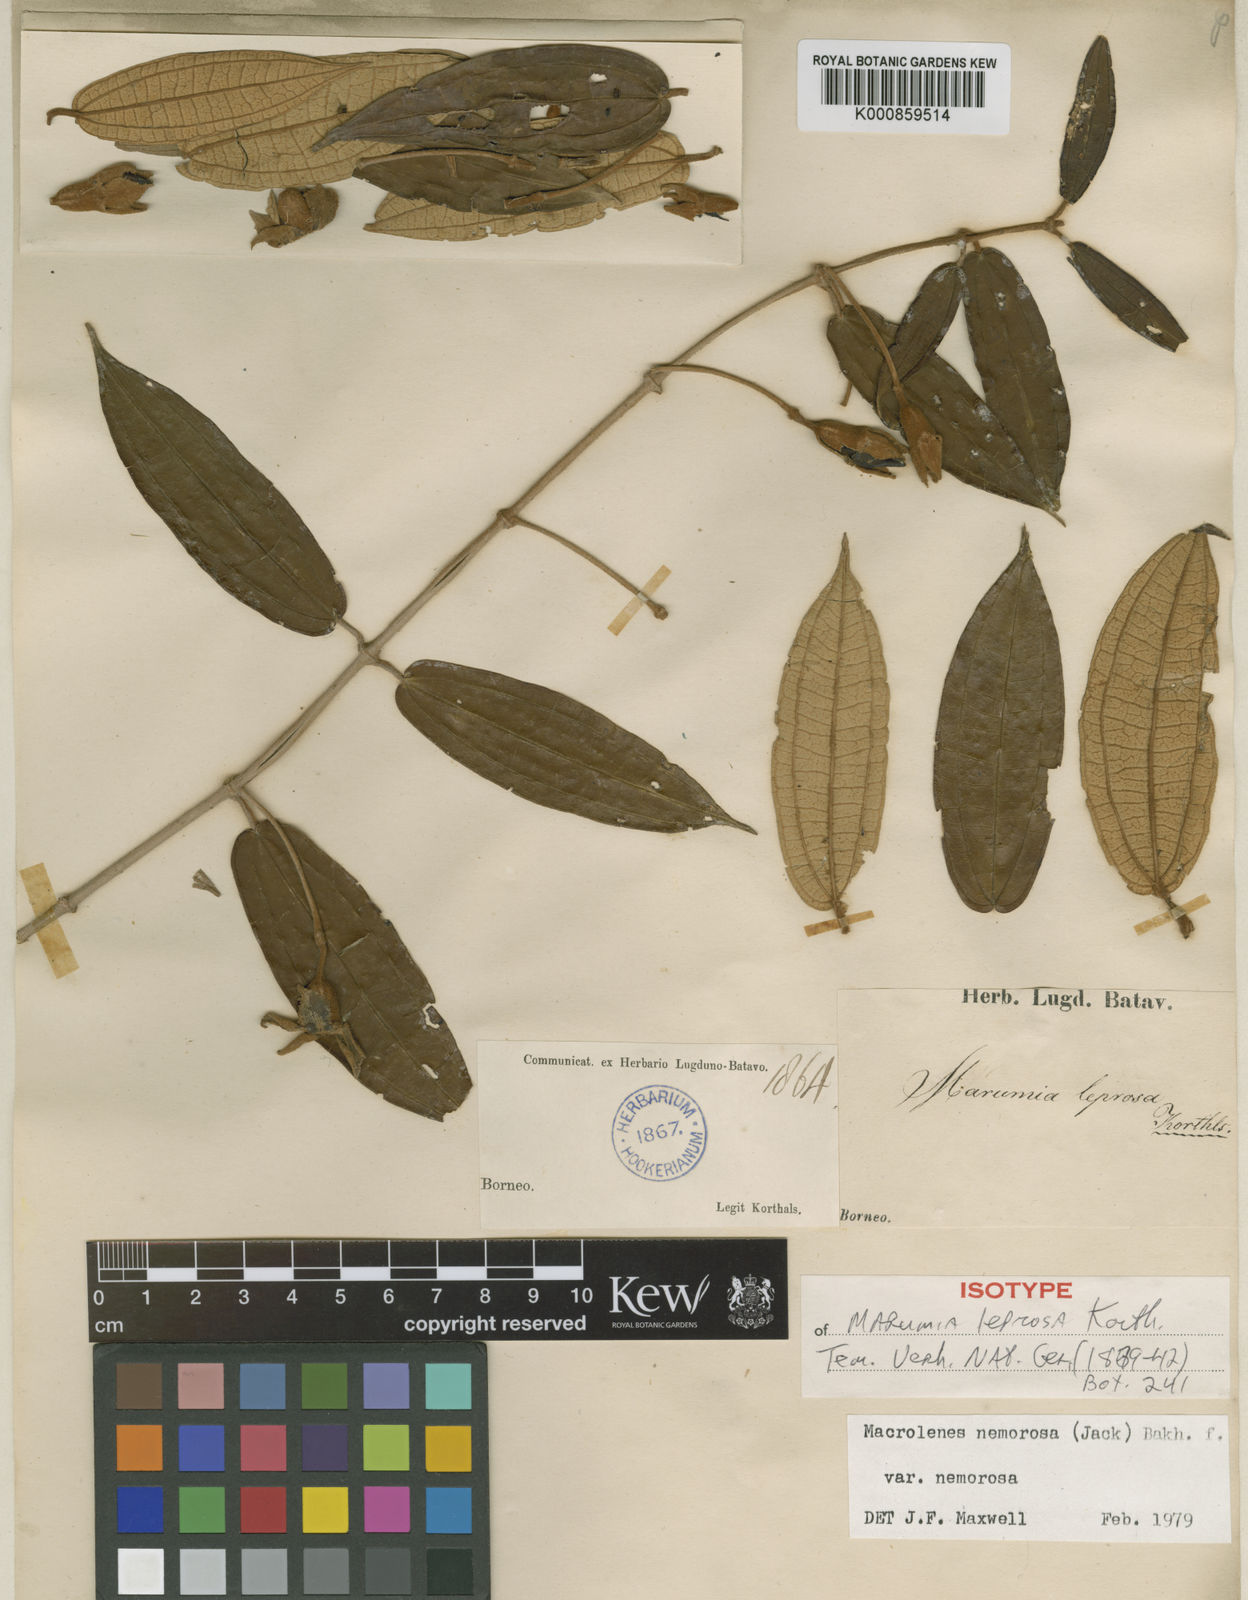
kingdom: Plantae
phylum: Tracheophyta
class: Magnoliopsida
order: Myrtales
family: Melastomataceae
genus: Macrolenes
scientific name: Macrolenes nemorosa
